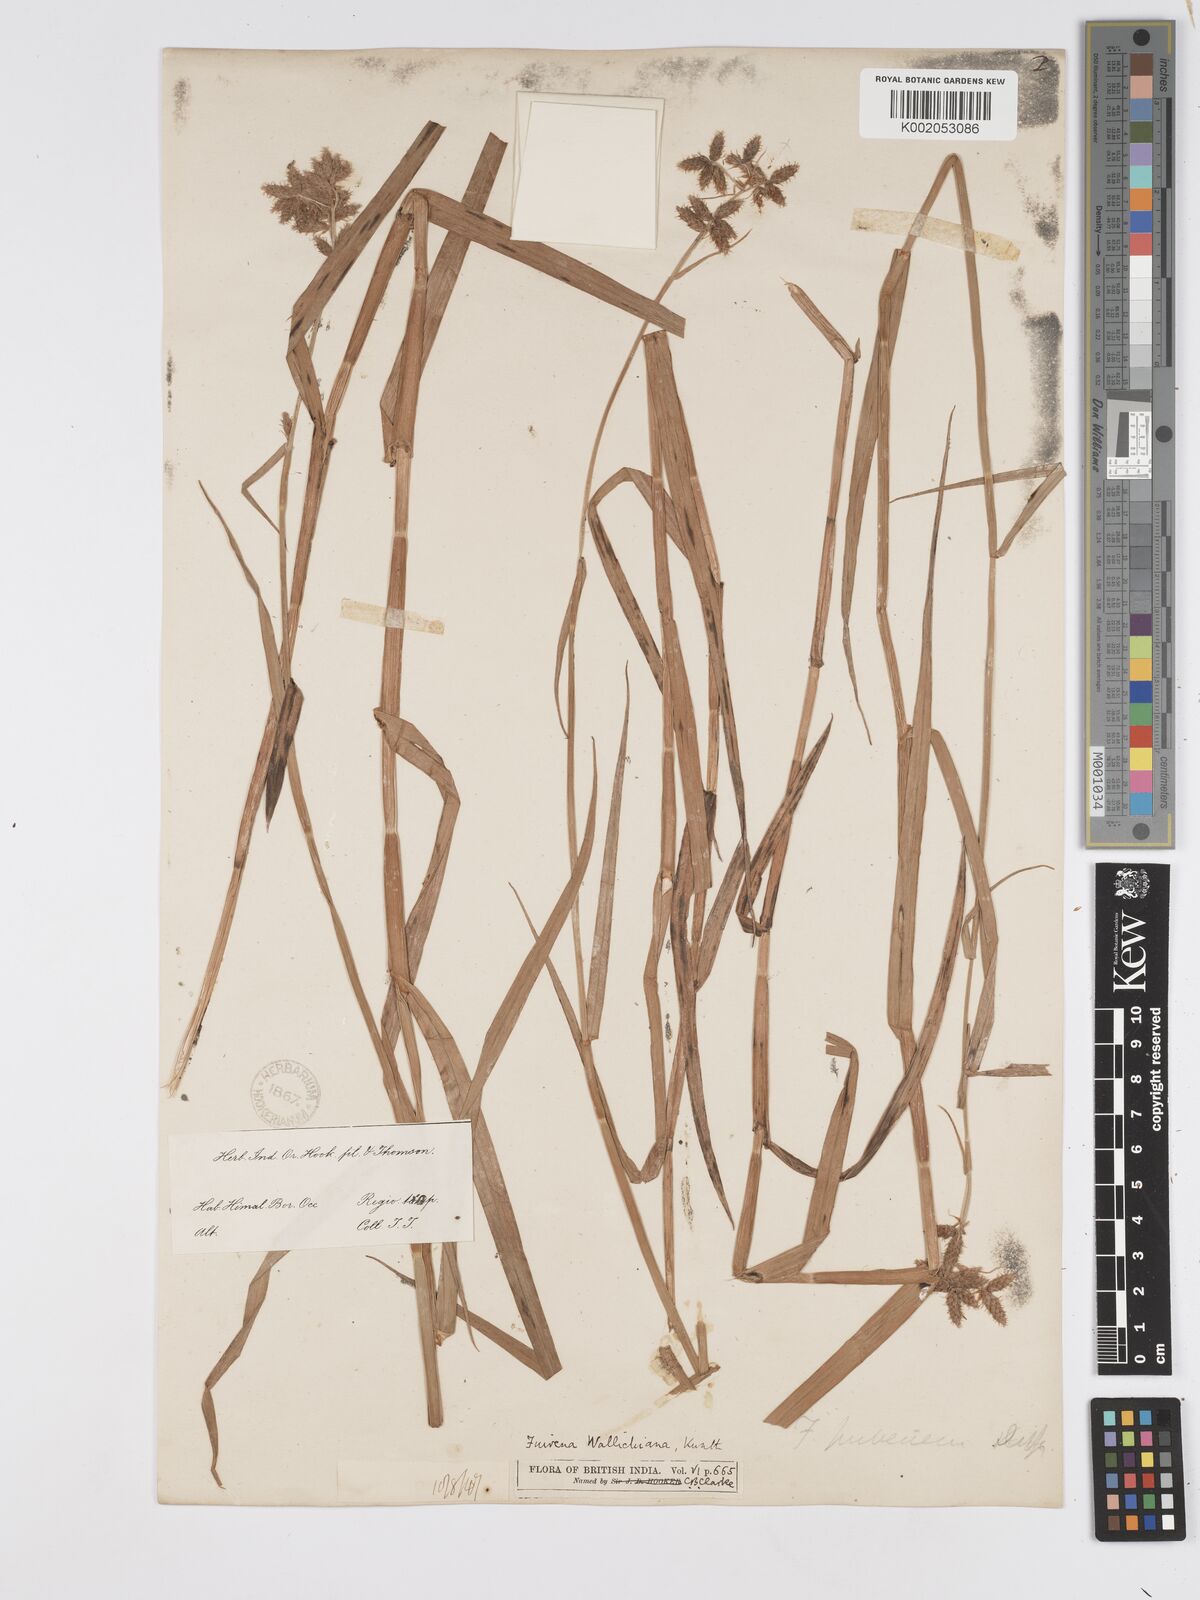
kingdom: Plantae
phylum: Tracheophyta
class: Liliopsida
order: Poales
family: Cyperaceae
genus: Fuirena
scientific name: Fuirena cuspidata
